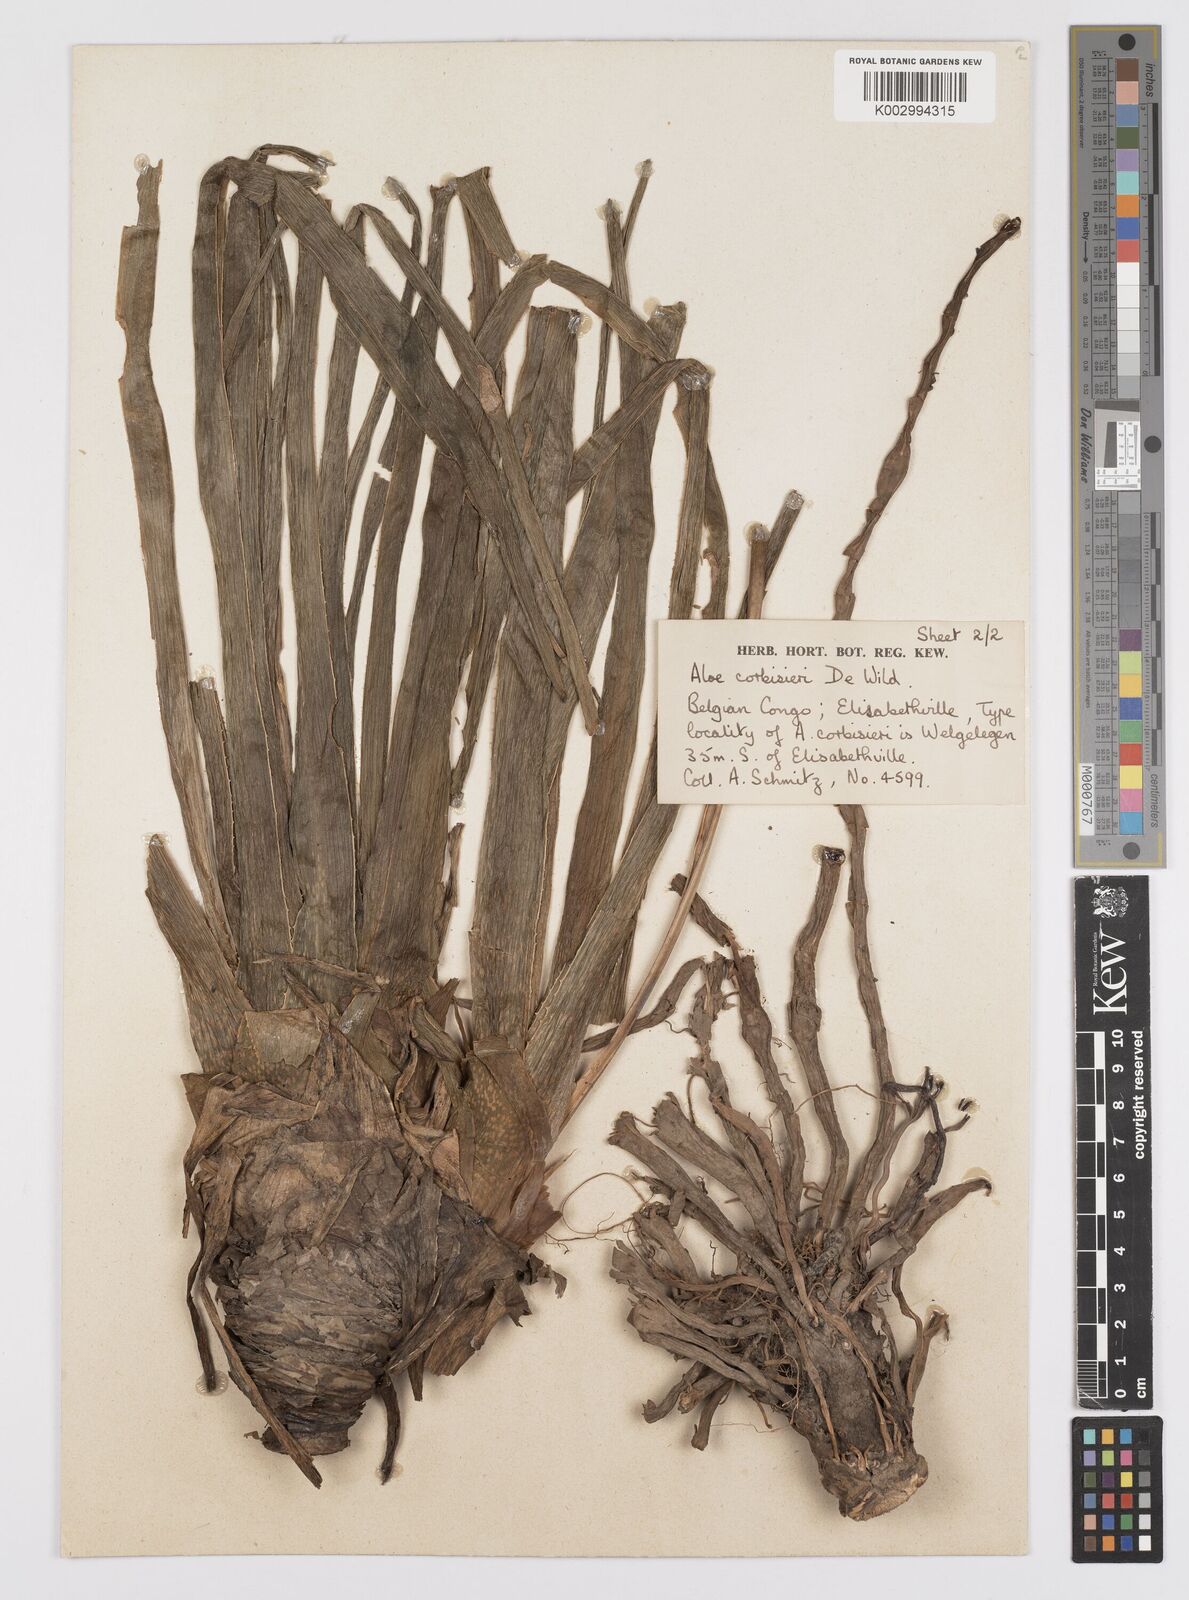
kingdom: Plantae
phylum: Tracheophyta
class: Liliopsida
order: Asparagales
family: Asphodelaceae
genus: Aloe
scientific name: Aloe nuttii
